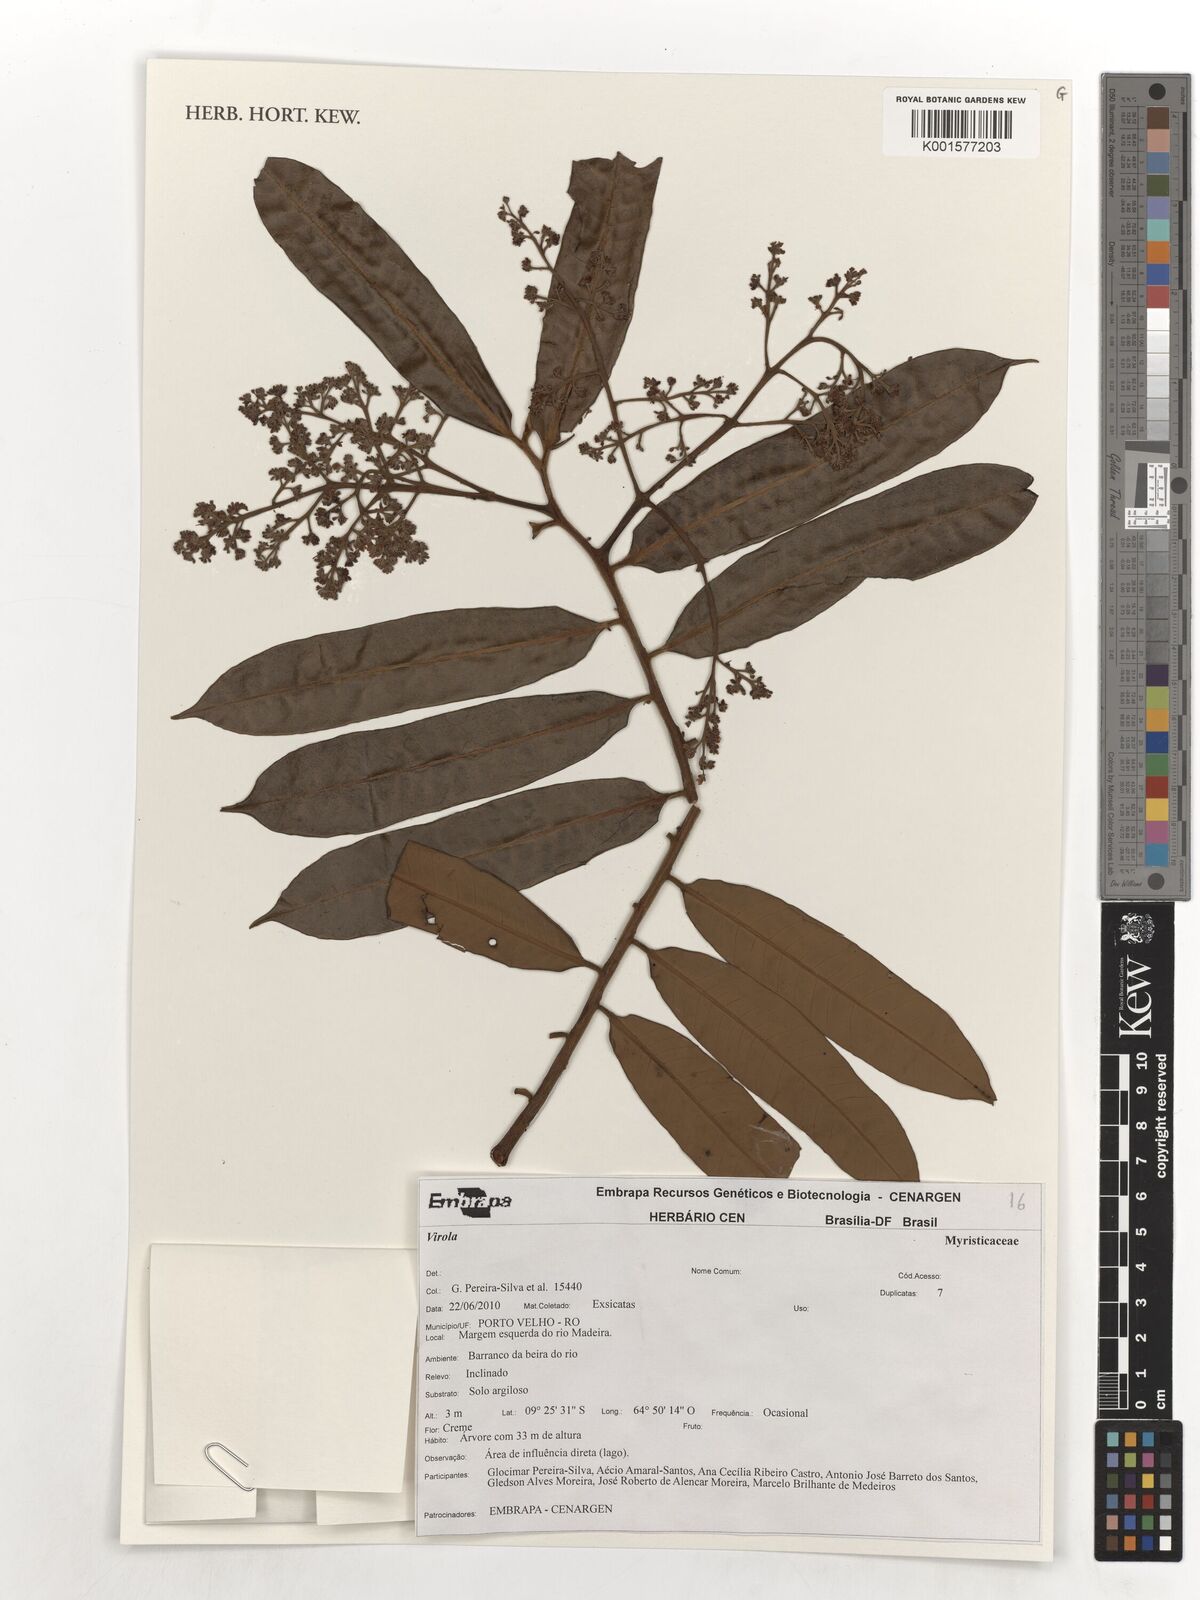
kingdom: Plantae
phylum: Tracheophyta
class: Magnoliopsida
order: Magnoliales
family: Myristicaceae
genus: Virola
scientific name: Virola
